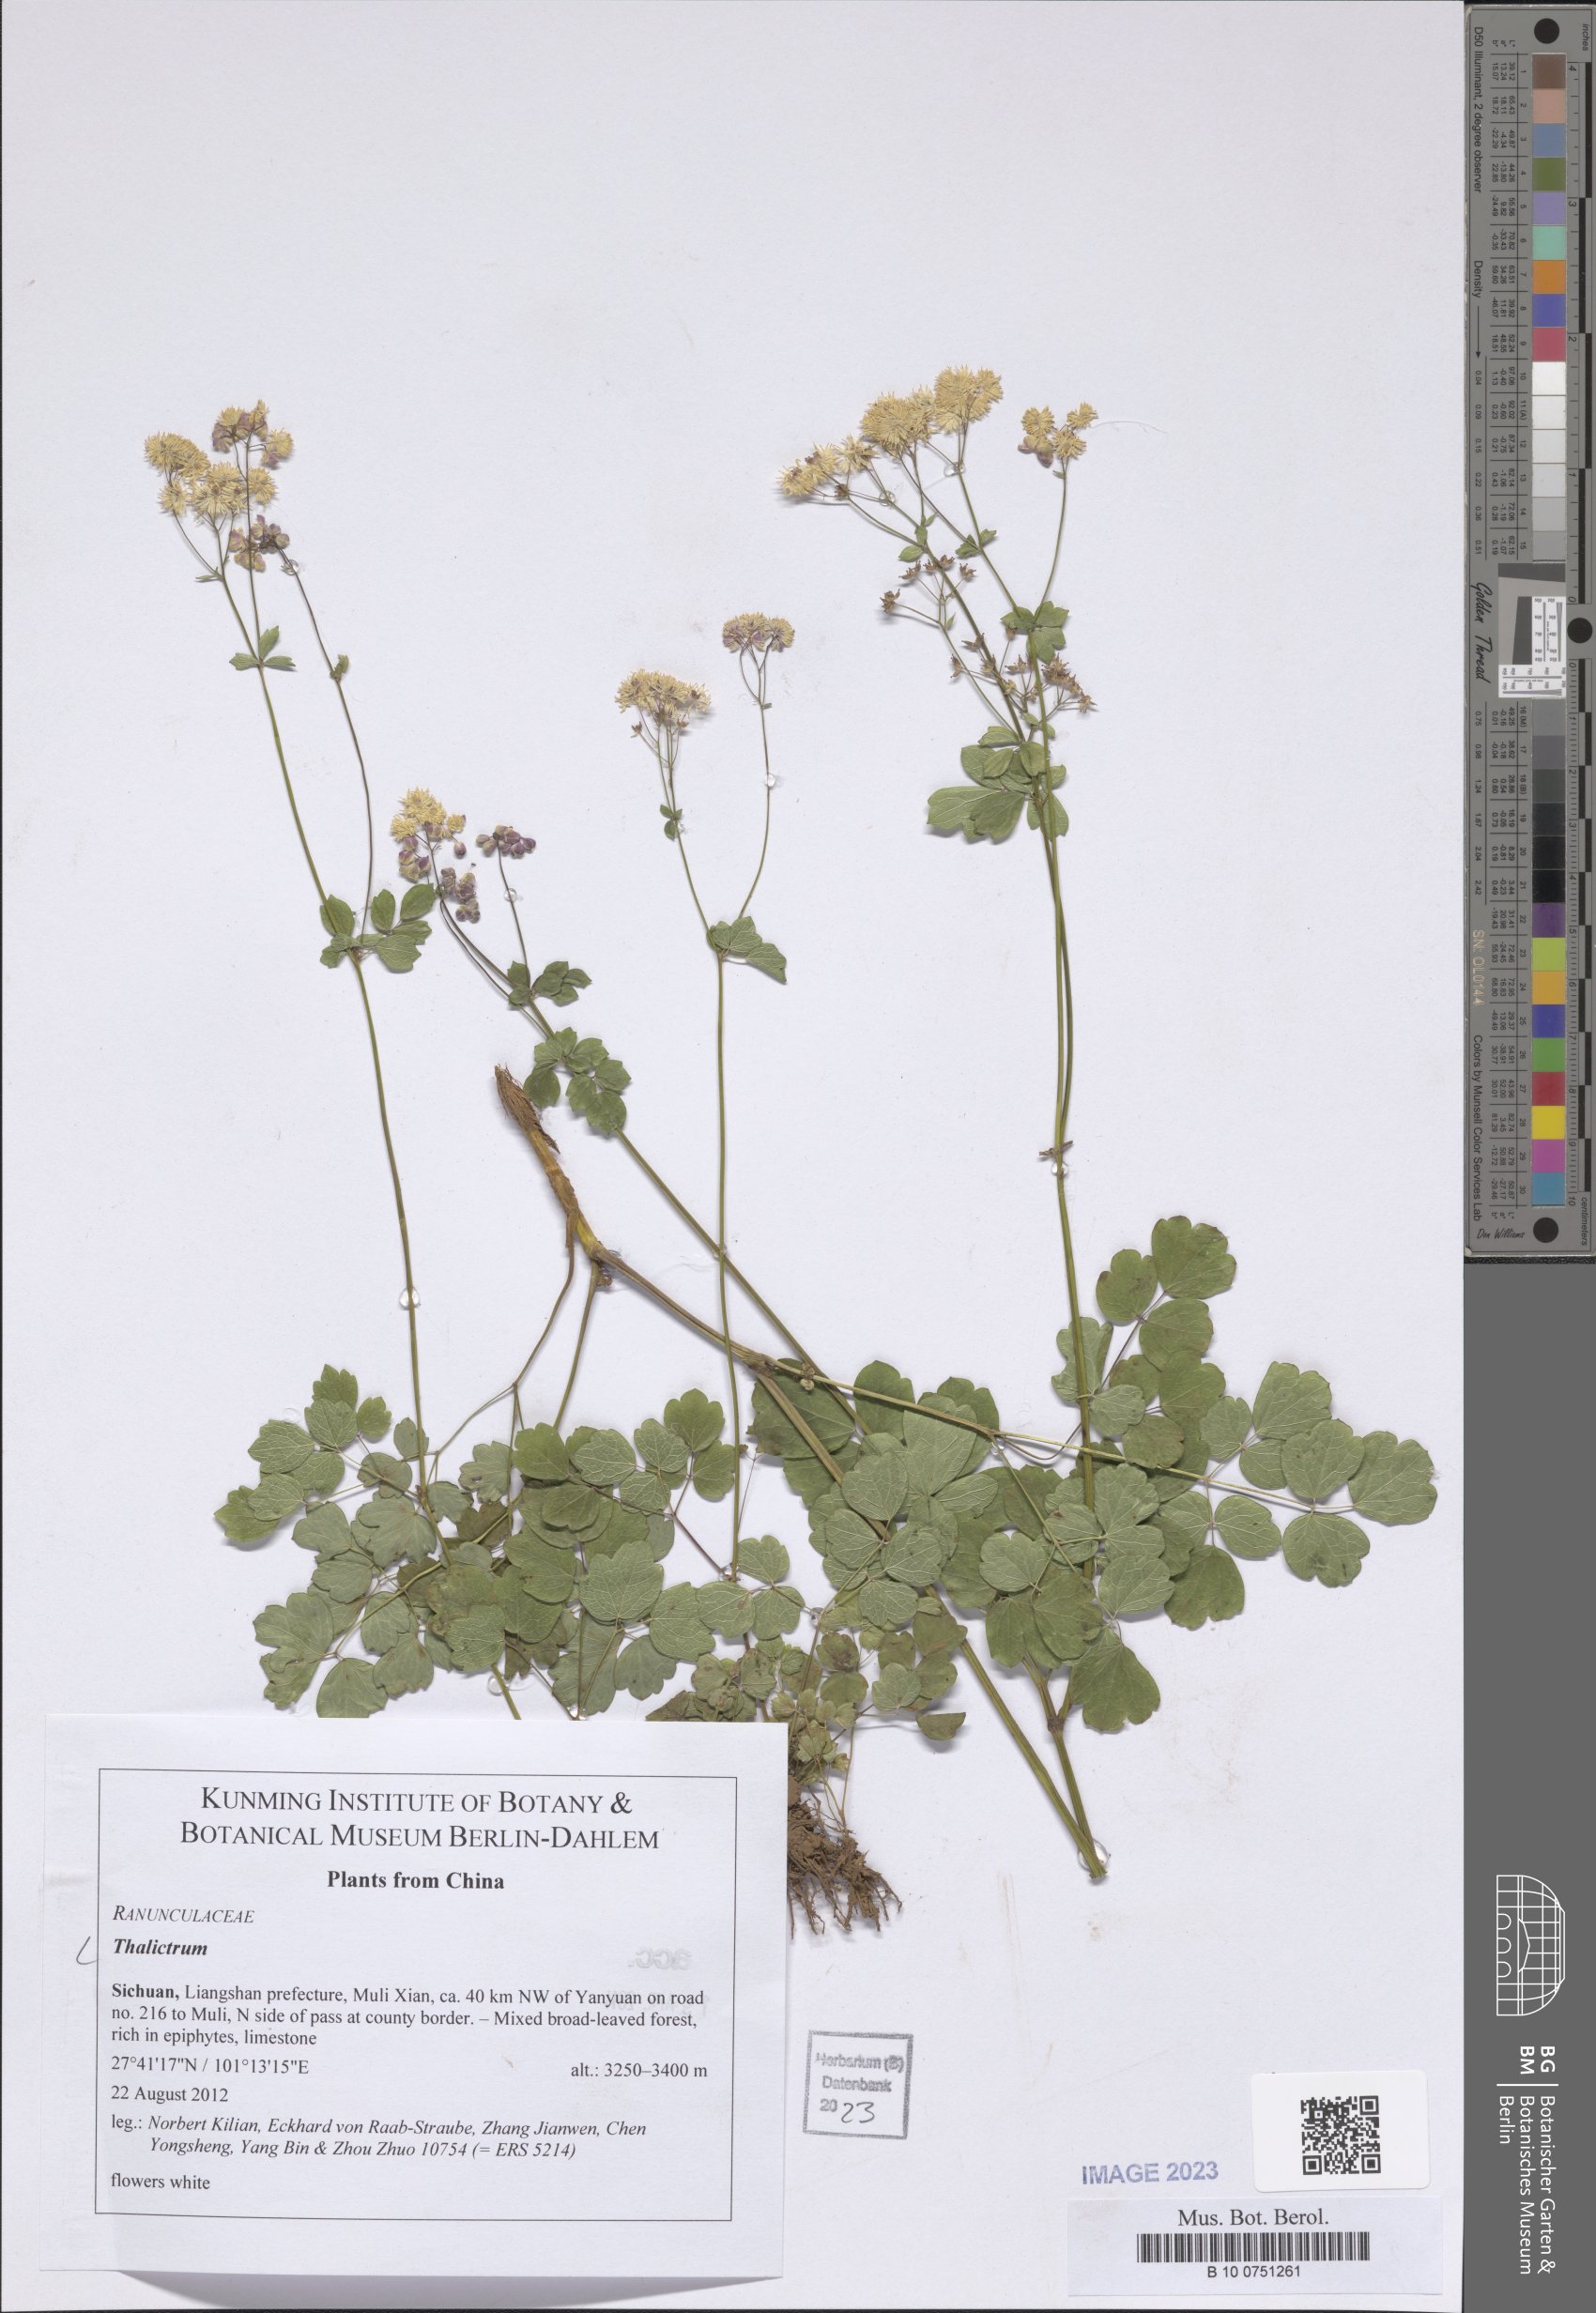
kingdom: Plantae
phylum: Tracheophyta
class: Magnoliopsida
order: Ranunculales
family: Ranunculaceae
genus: Thalictrum
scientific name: Thalictrum
